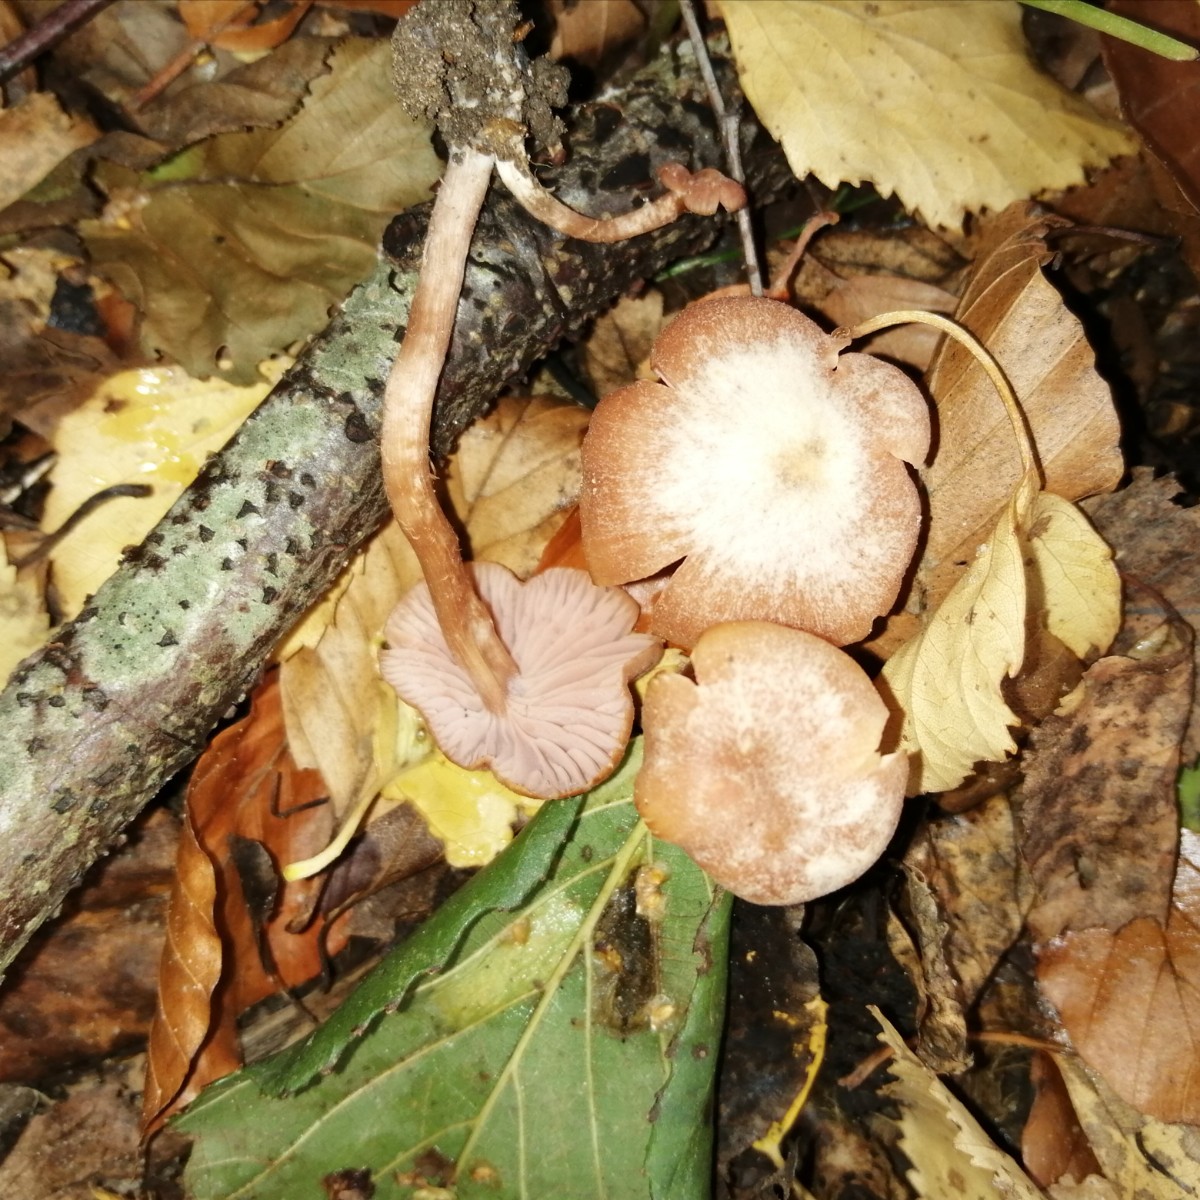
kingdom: Fungi
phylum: Basidiomycota
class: Agaricomycetes
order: Agaricales
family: Hydnangiaceae
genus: Laccaria
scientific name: Laccaria laccata
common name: rød ametysthat
